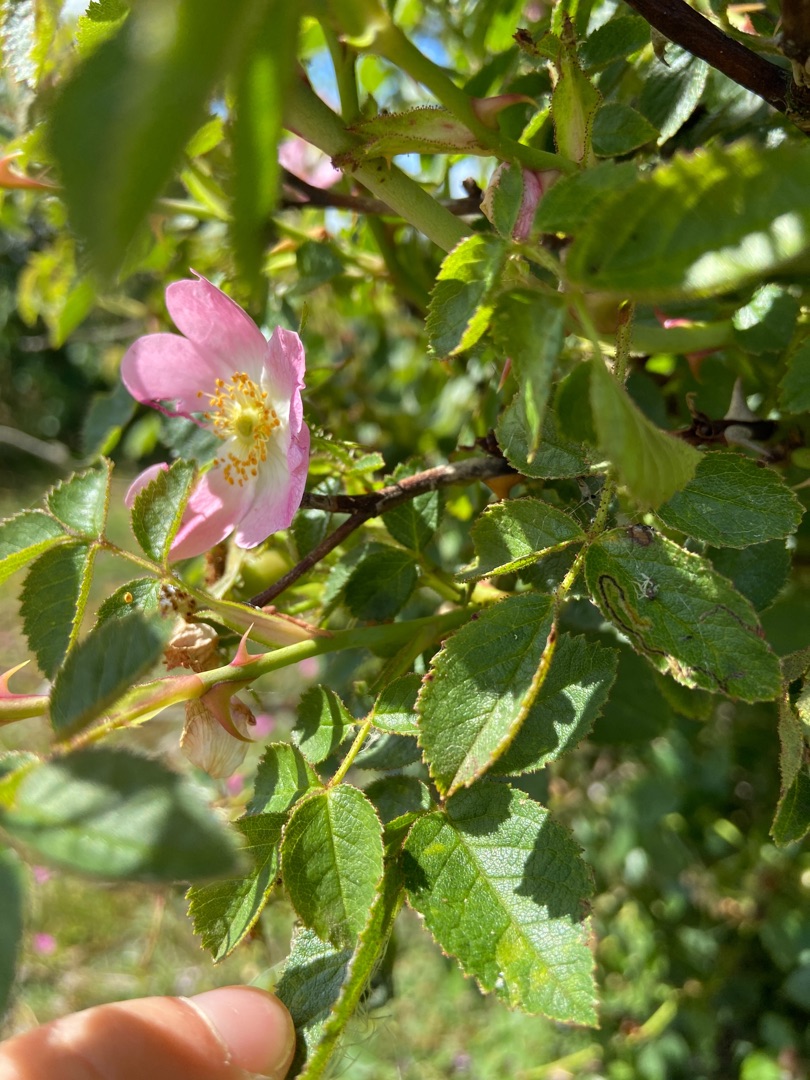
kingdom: Plantae
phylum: Tracheophyta
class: Magnoliopsida
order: Rosales
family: Rosaceae
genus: Rosa
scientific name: Rosa rubiginosa
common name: Æble-rose
